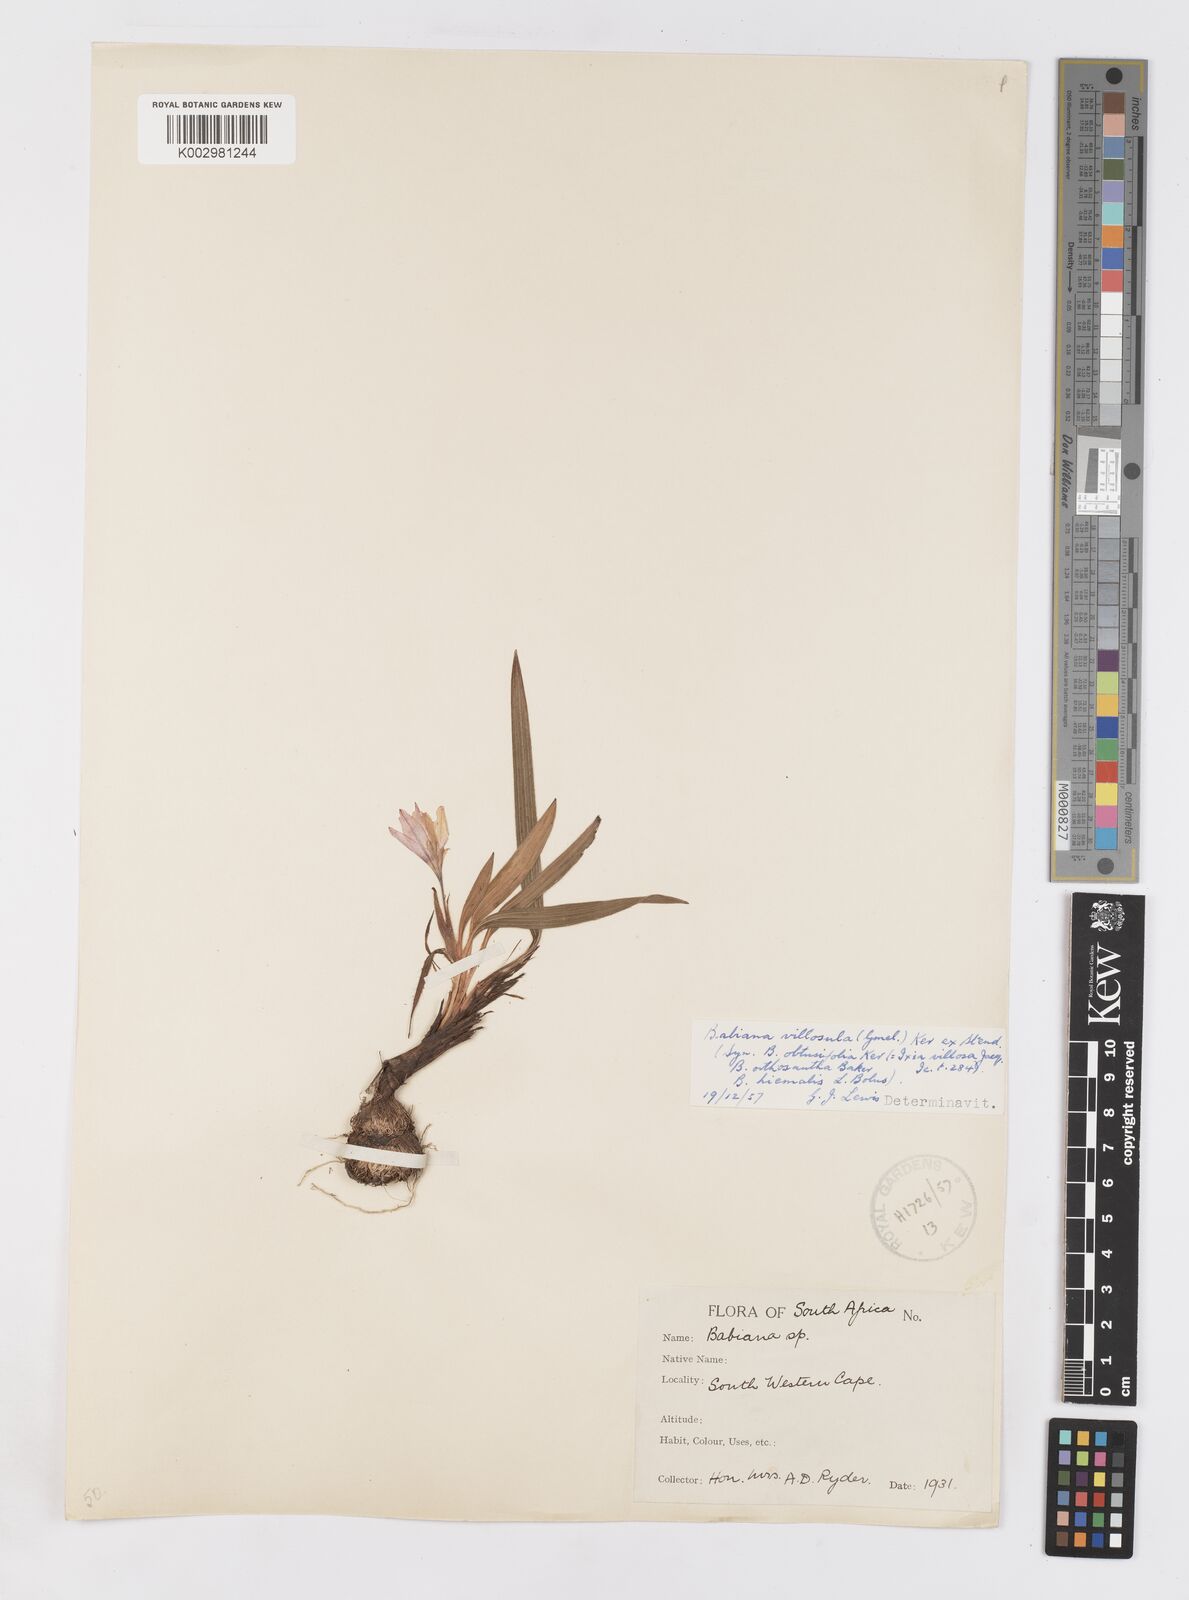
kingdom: Plantae
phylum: Tracheophyta
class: Liliopsida
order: Asparagales
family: Iridaceae
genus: Babiana
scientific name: Babiana villosula
